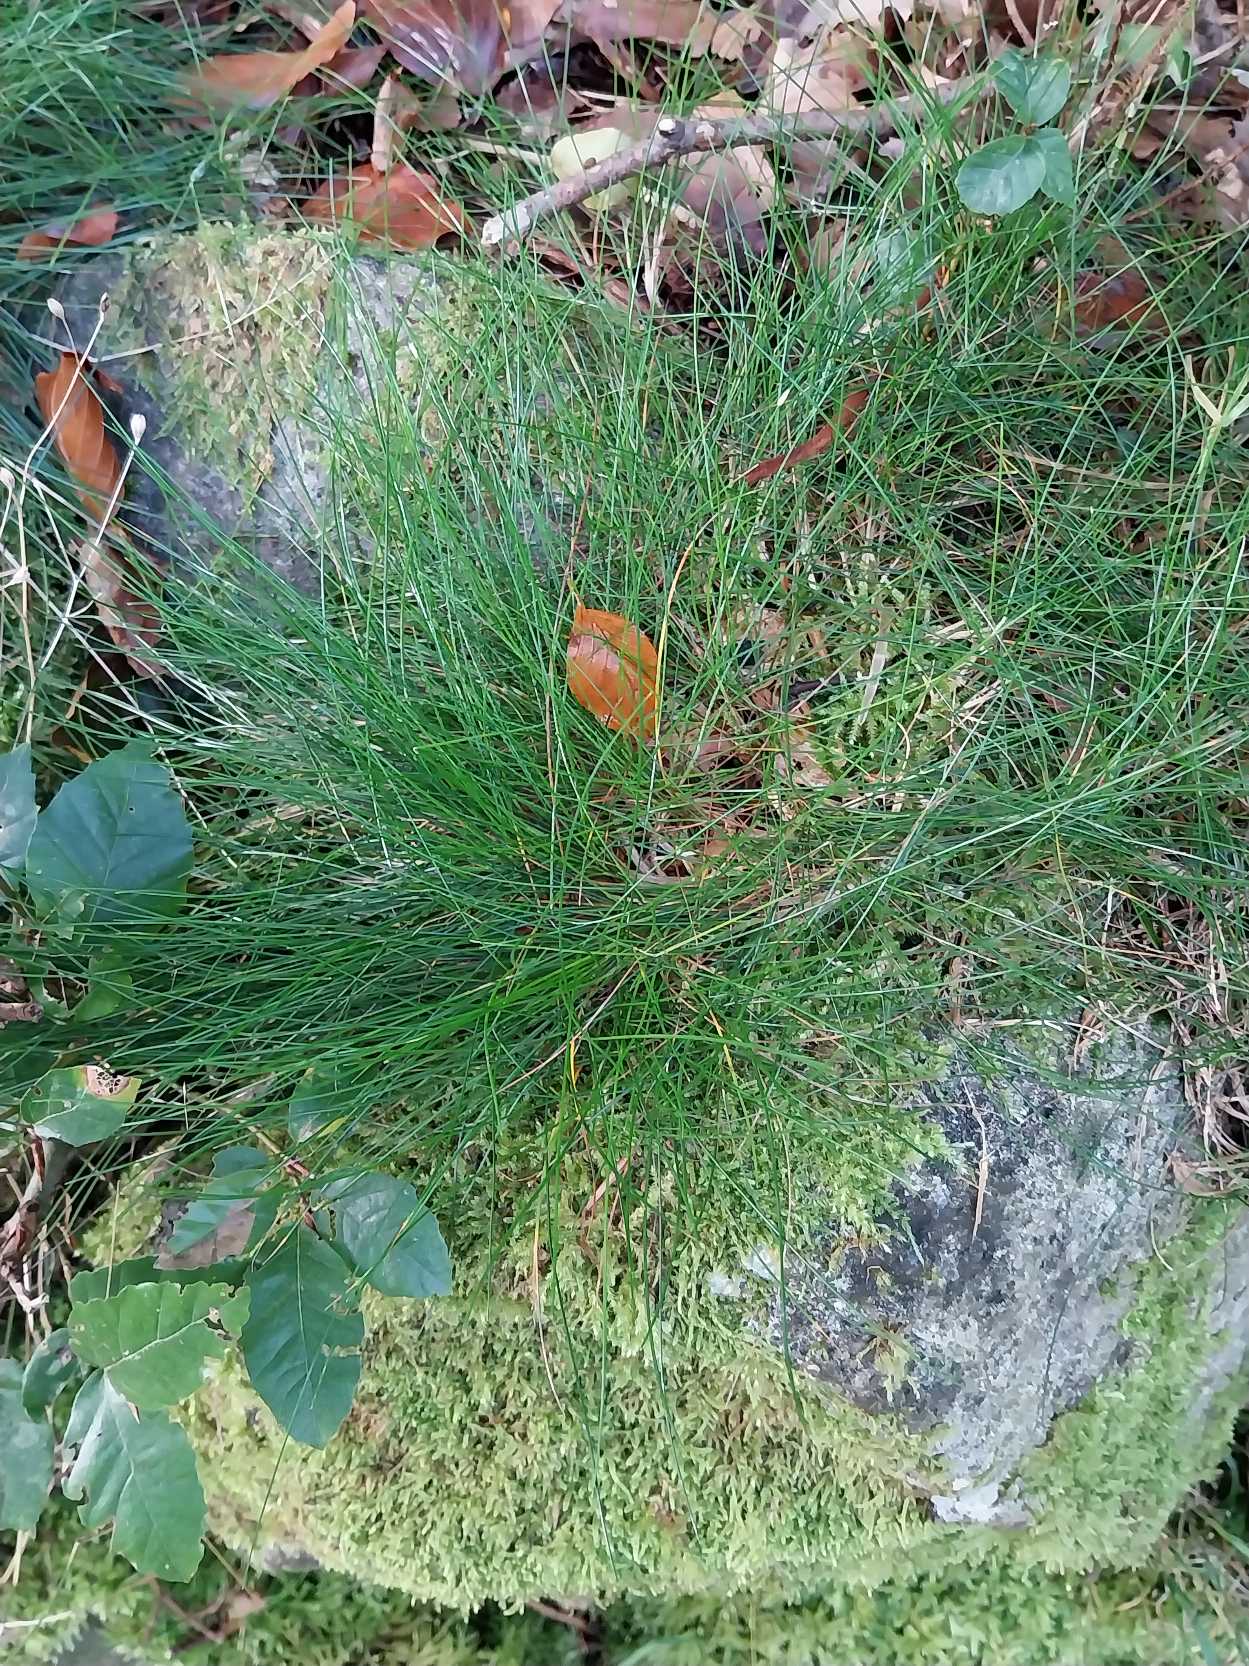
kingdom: Plantae
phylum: Tracheophyta
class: Liliopsida
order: Poales
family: Poaceae
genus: Avenella
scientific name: Avenella flexuosa
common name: Bølget bunke
